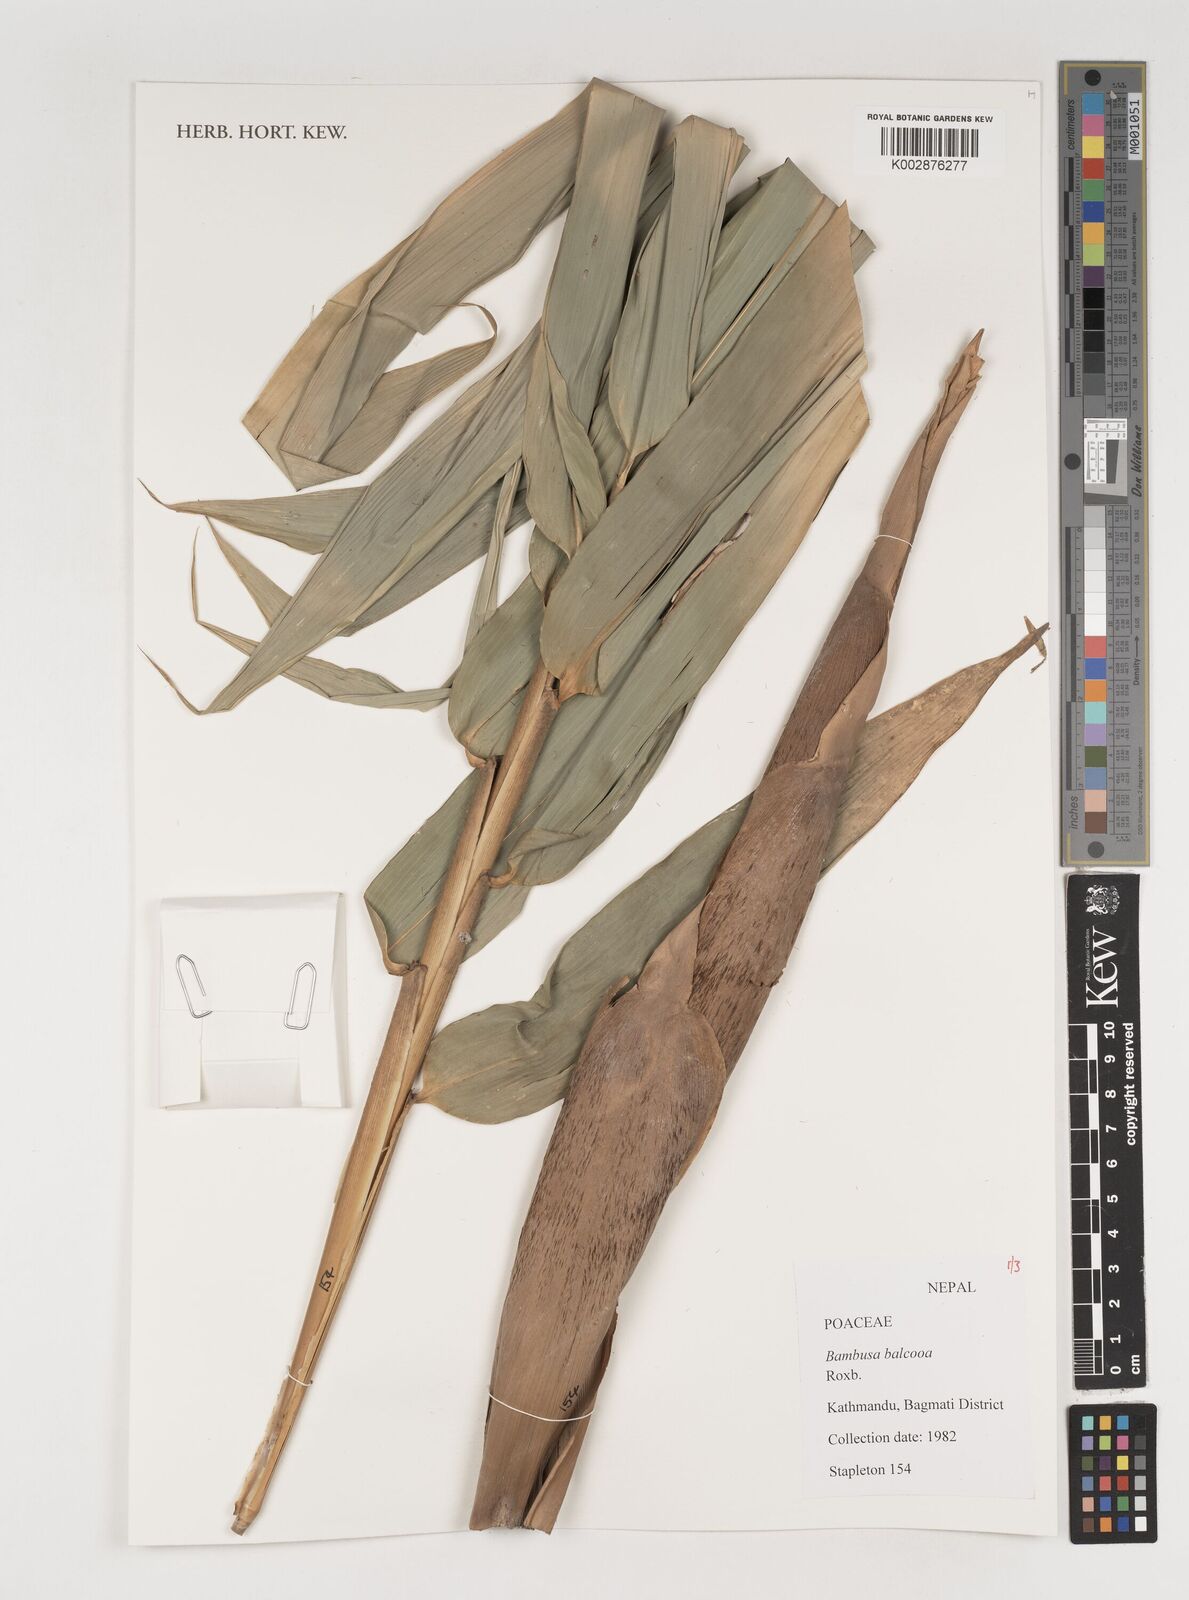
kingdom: Plantae
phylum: Tracheophyta
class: Liliopsida
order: Poales
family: Poaceae
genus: Bambusa
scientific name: Bambusa balcooa
